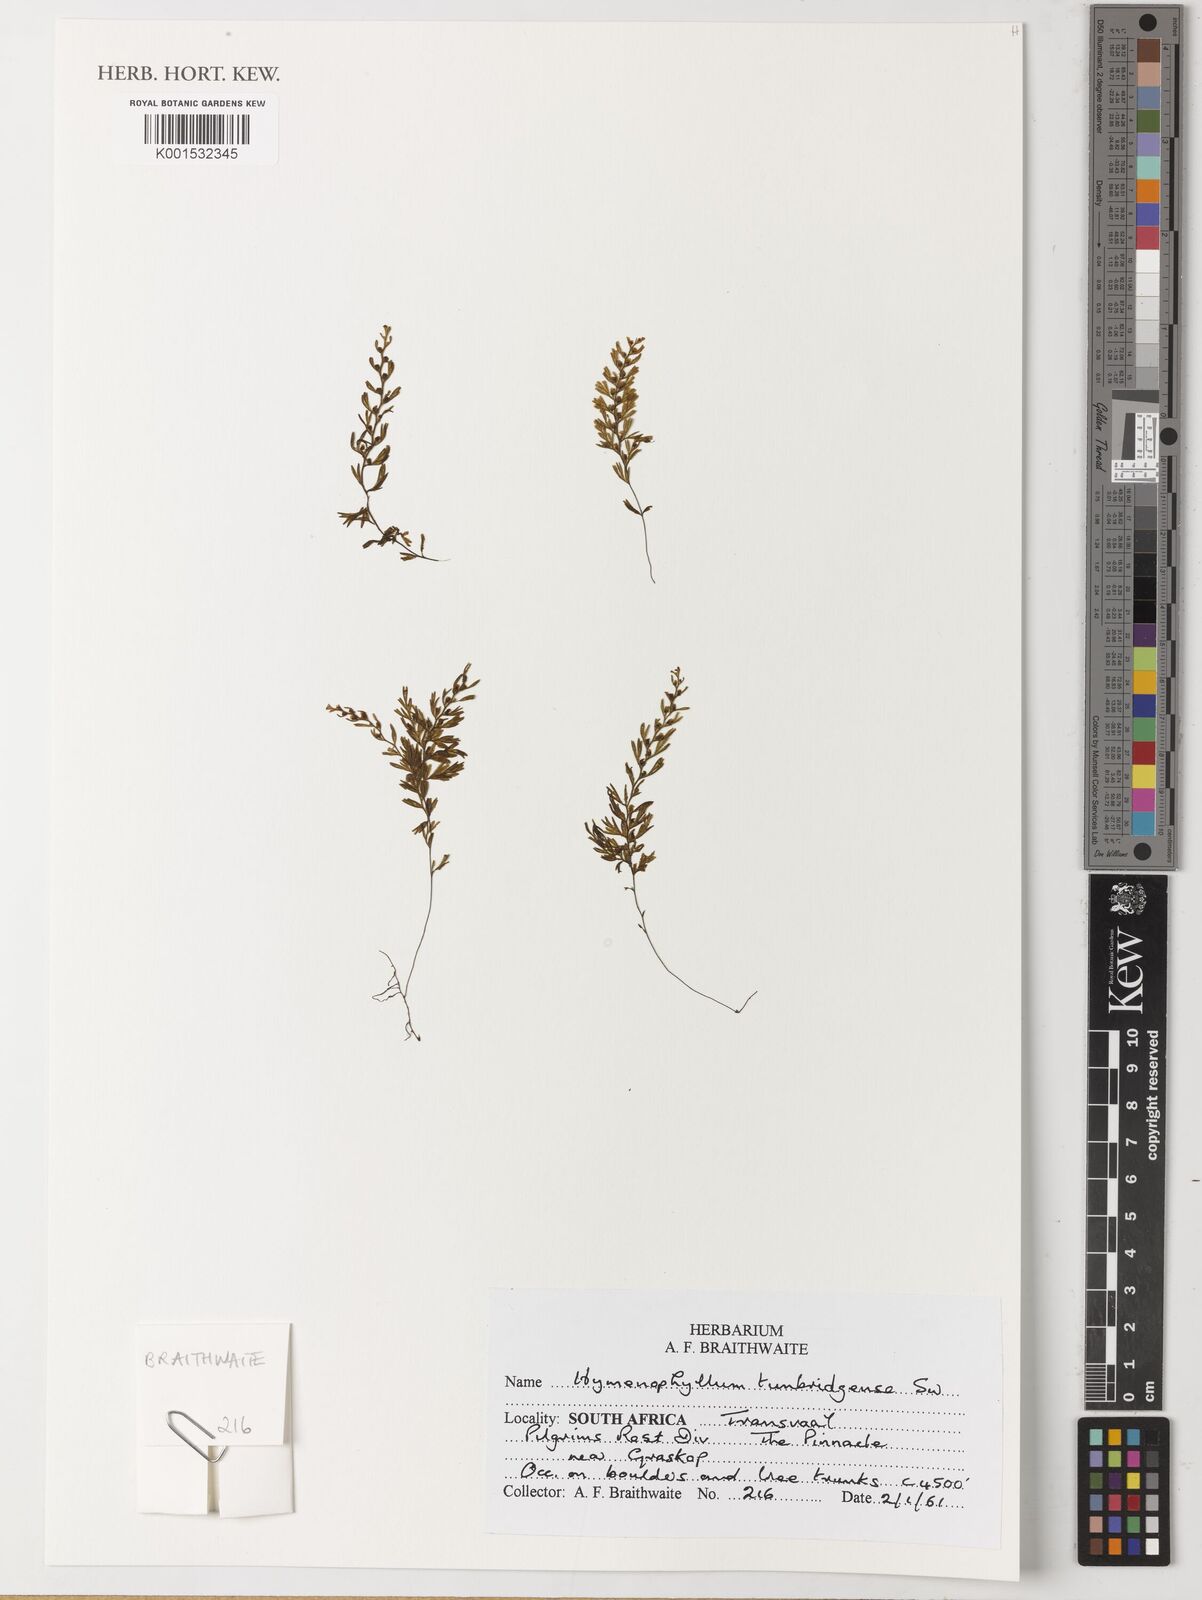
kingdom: Plantae
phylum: Tracheophyta
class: Polypodiopsida
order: Hymenophyllales
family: Hymenophyllaceae
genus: Hymenophyllum
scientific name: Hymenophyllum tunbrigense
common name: Tunbridge filmy fern
